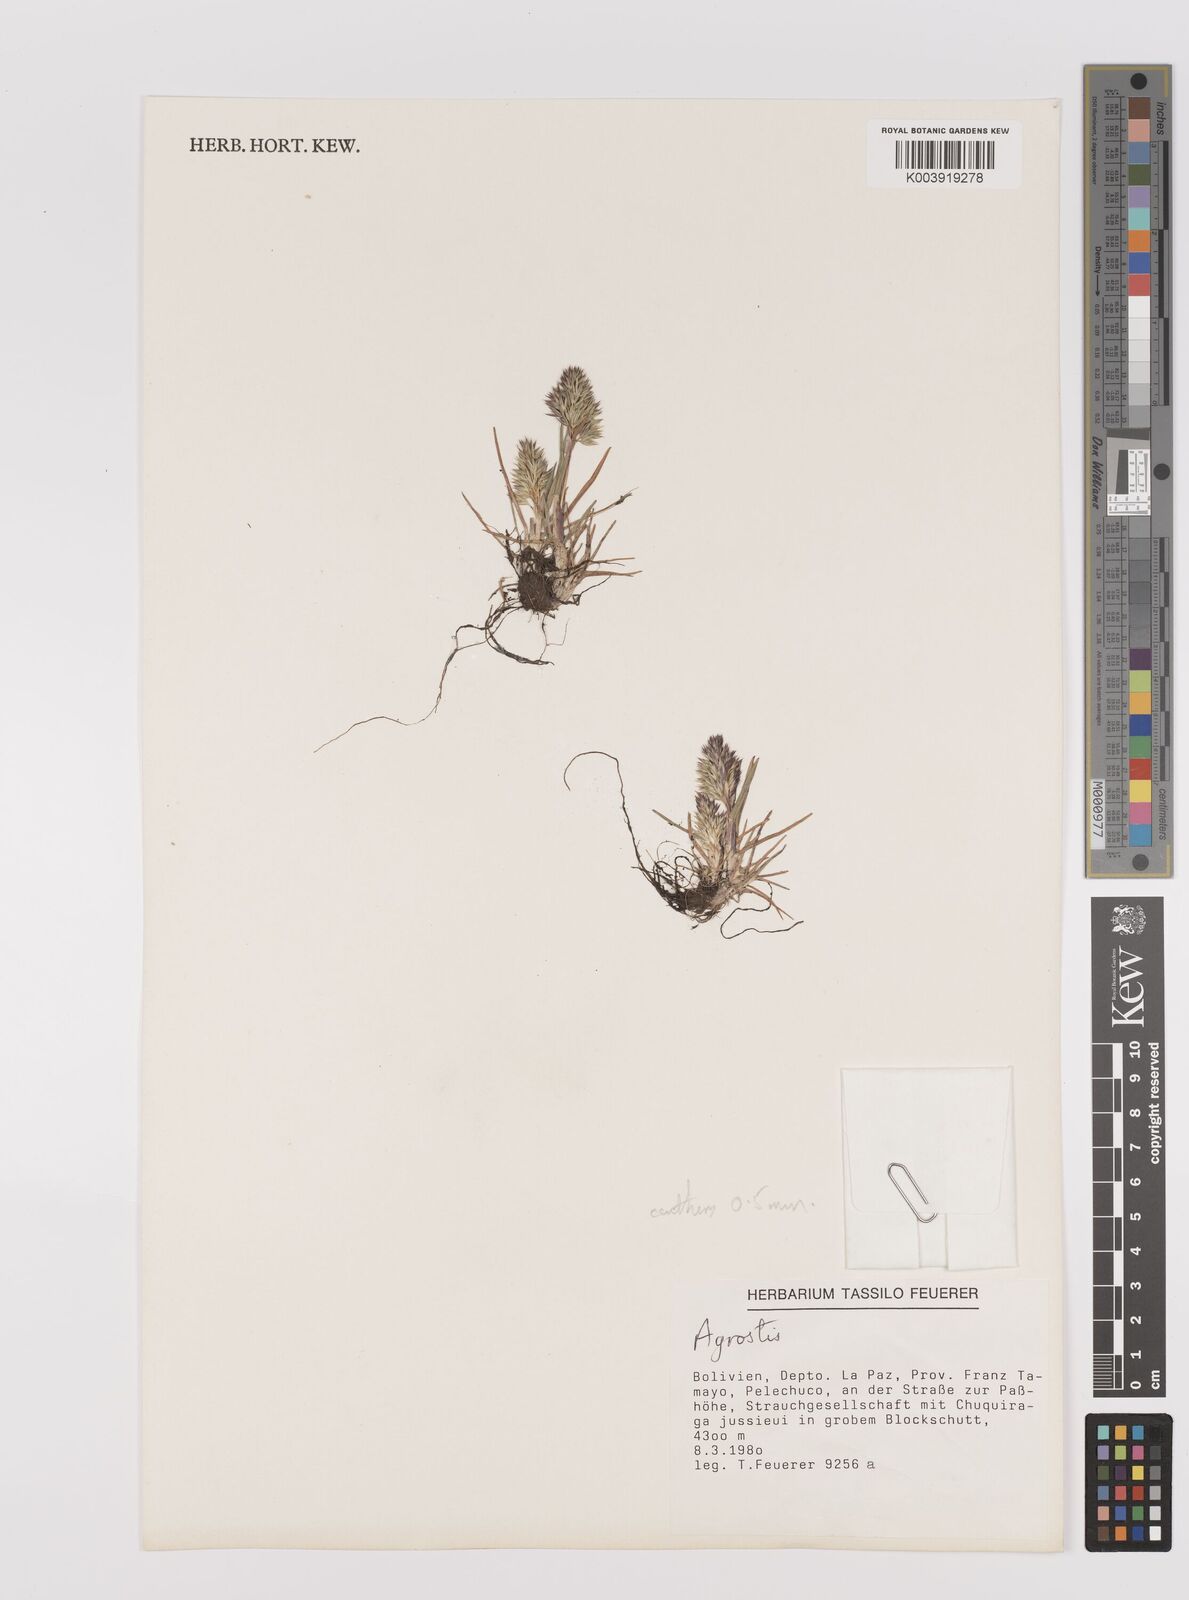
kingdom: Plantae
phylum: Tracheophyta
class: Liliopsida
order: Poales
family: Poaceae
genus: Poa
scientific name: Poa calycina
